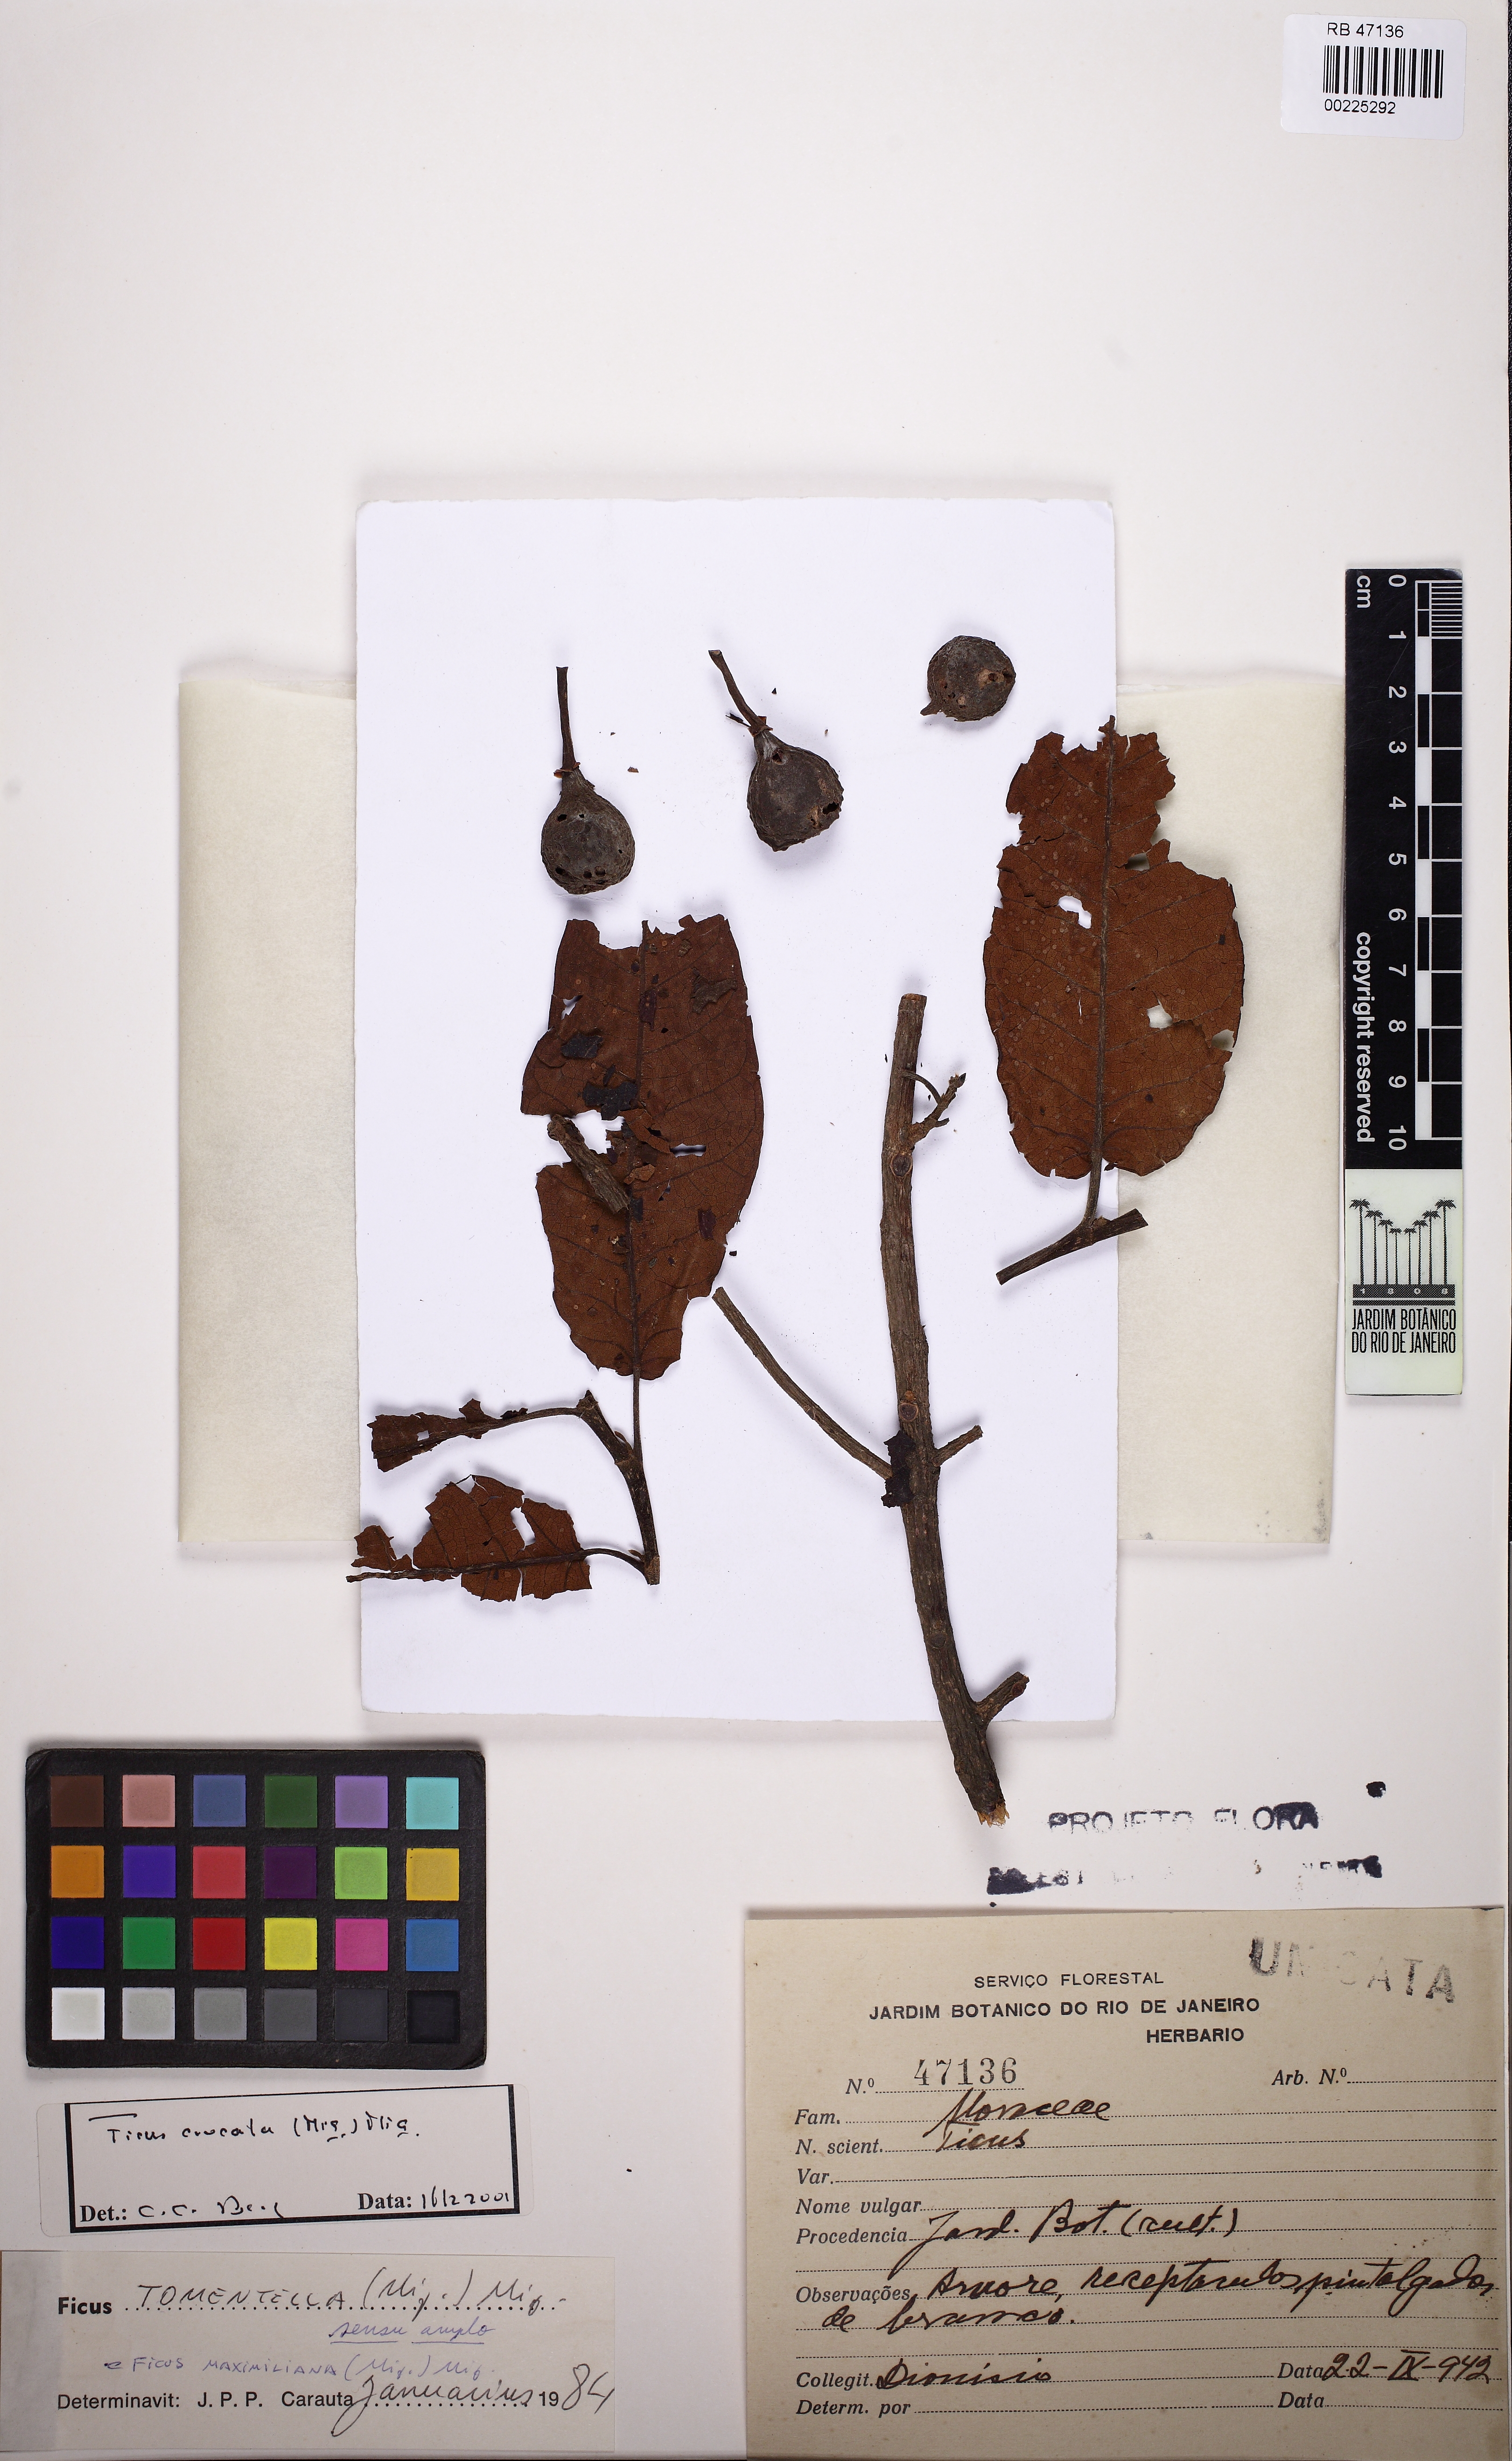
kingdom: Plantae
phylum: Tracheophyta
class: Magnoliopsida
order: Rosales
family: Moraceae
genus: Ficus
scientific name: Ficus crocata
